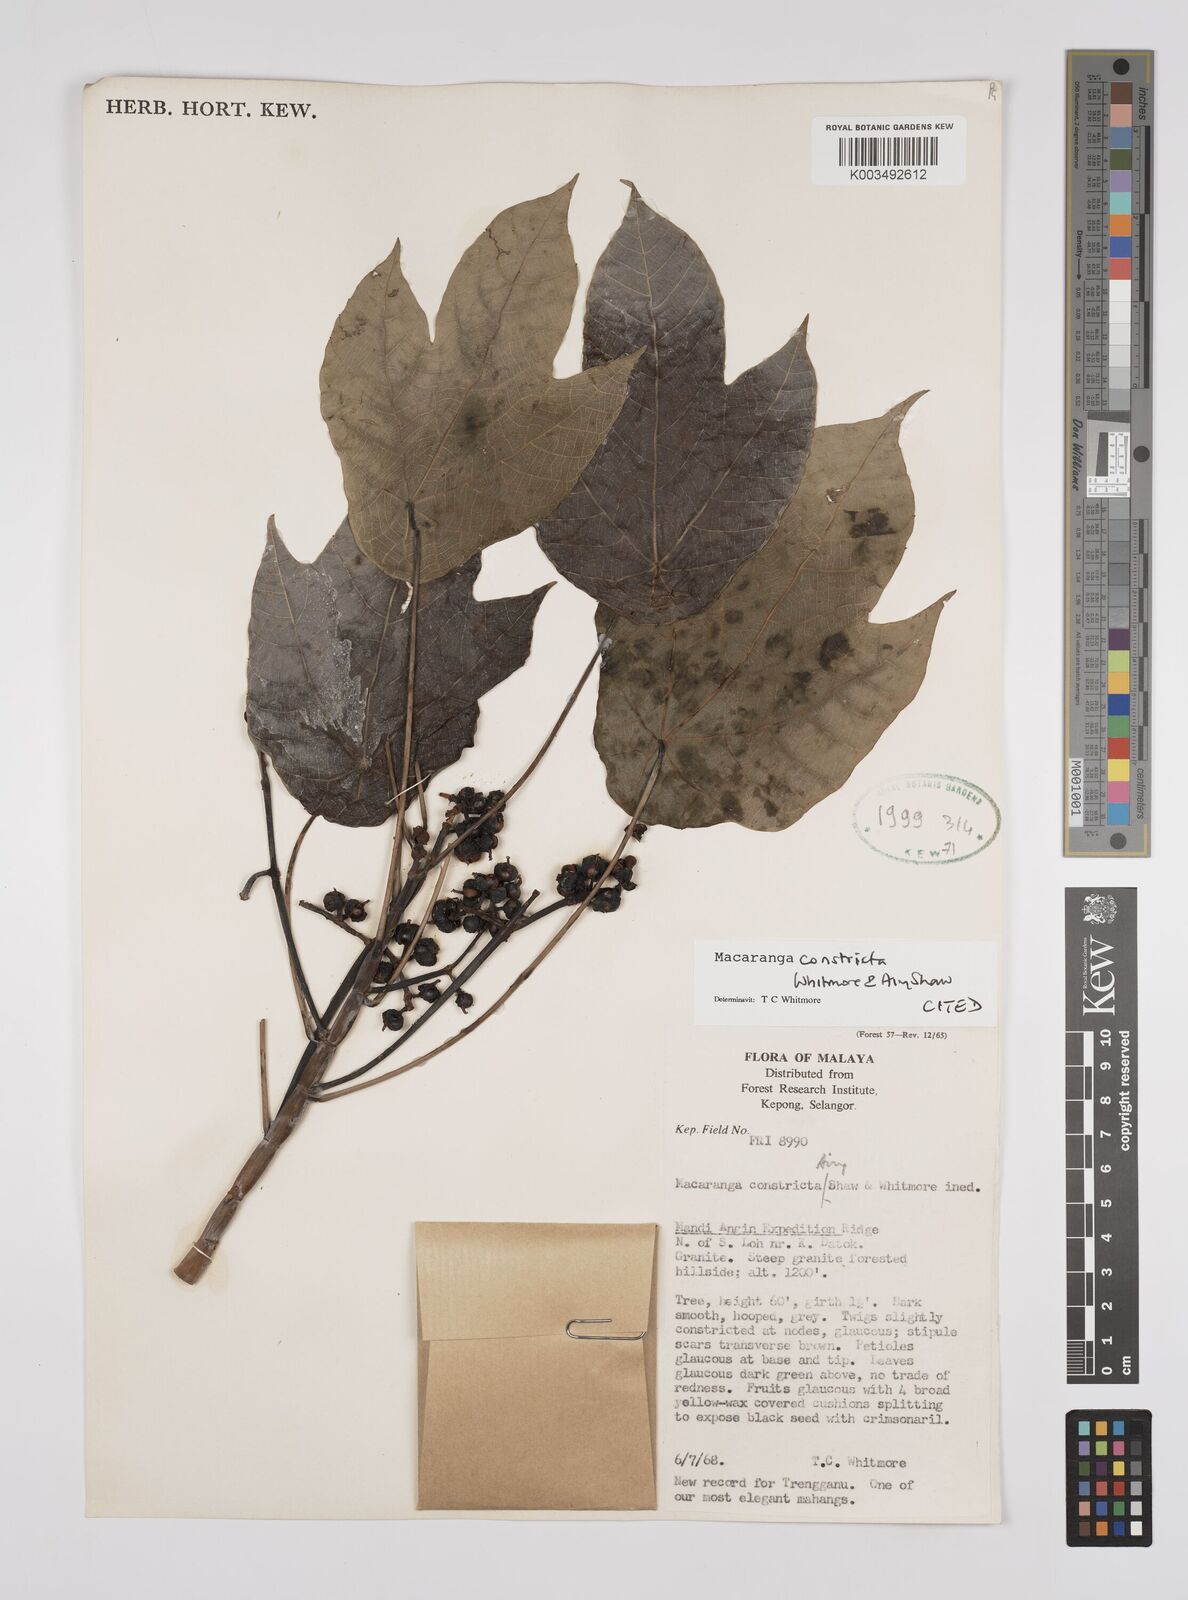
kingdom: Plantae
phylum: Tracheophyta
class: Magnoliopsida
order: Malpighiales
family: Euphorbiaceae
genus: Macaranga
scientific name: Macaranga constricta
